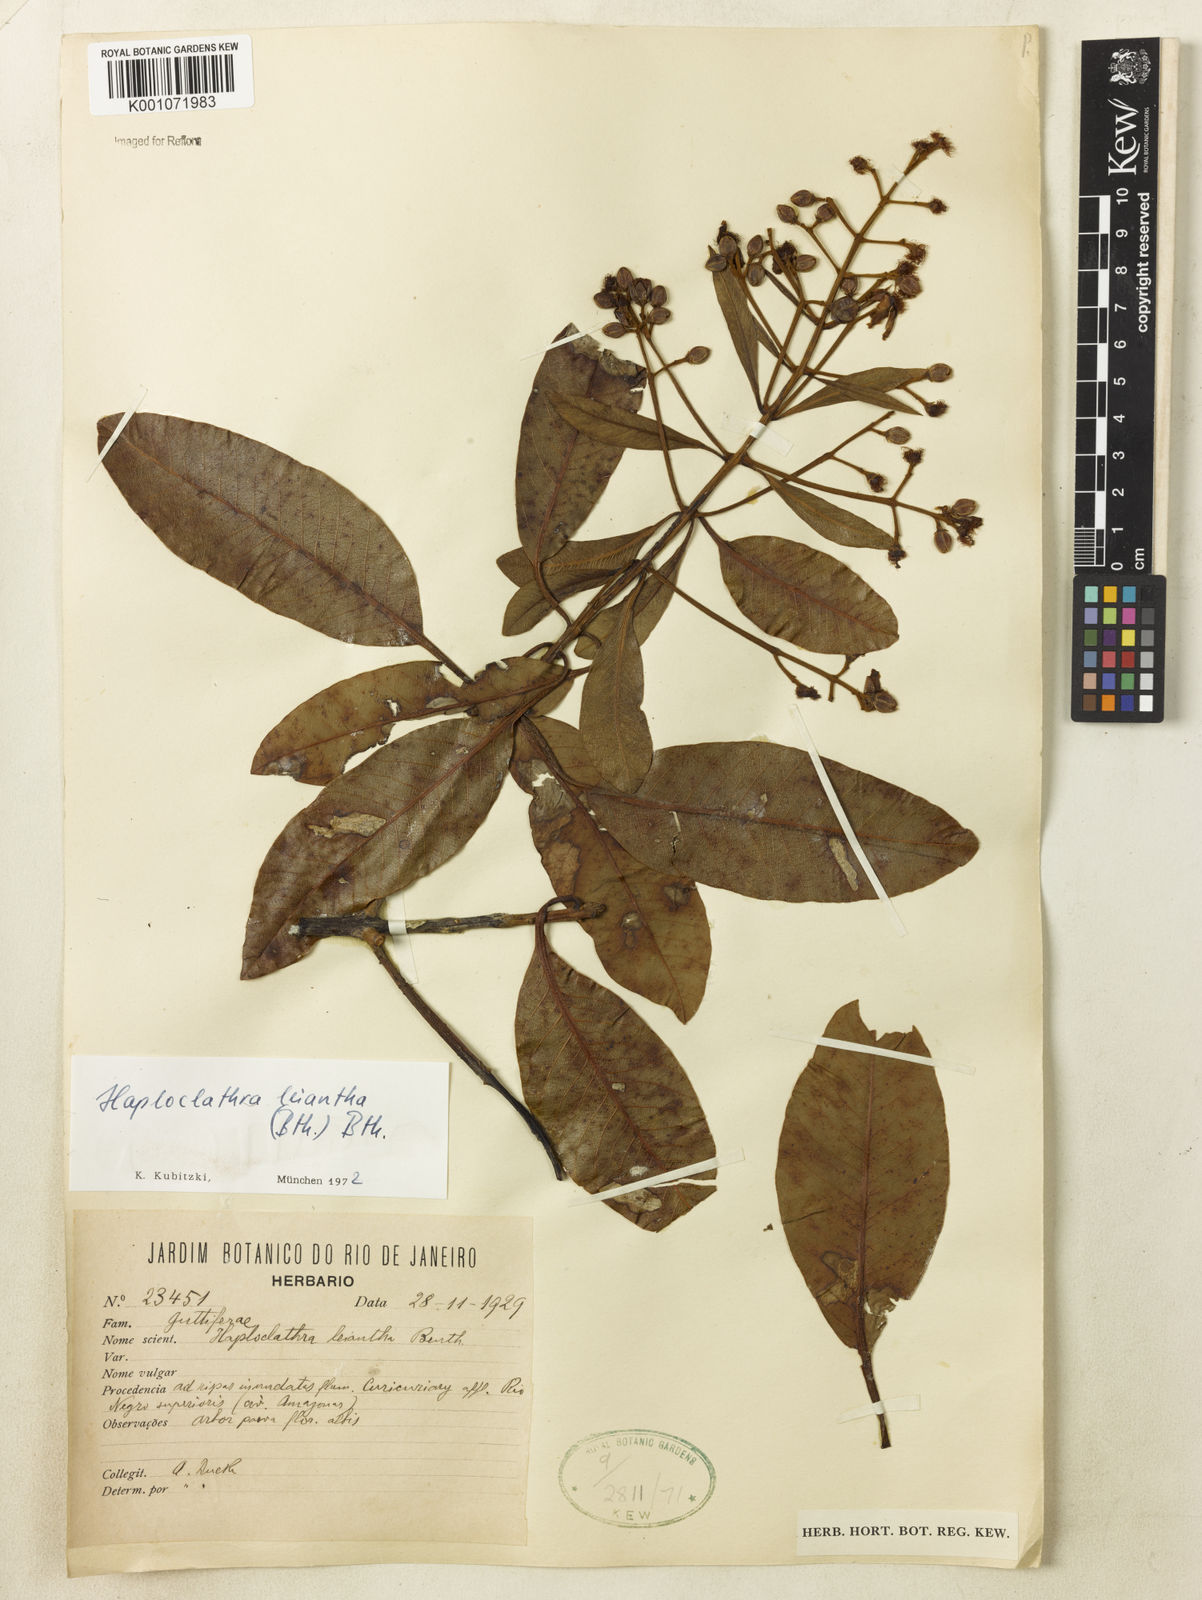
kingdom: Plantae
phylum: Tracheophyta
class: Magnoliopsida
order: Malpighiales
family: Calophyllaceae
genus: Haploclathra
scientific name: Haploclathra leiantha
